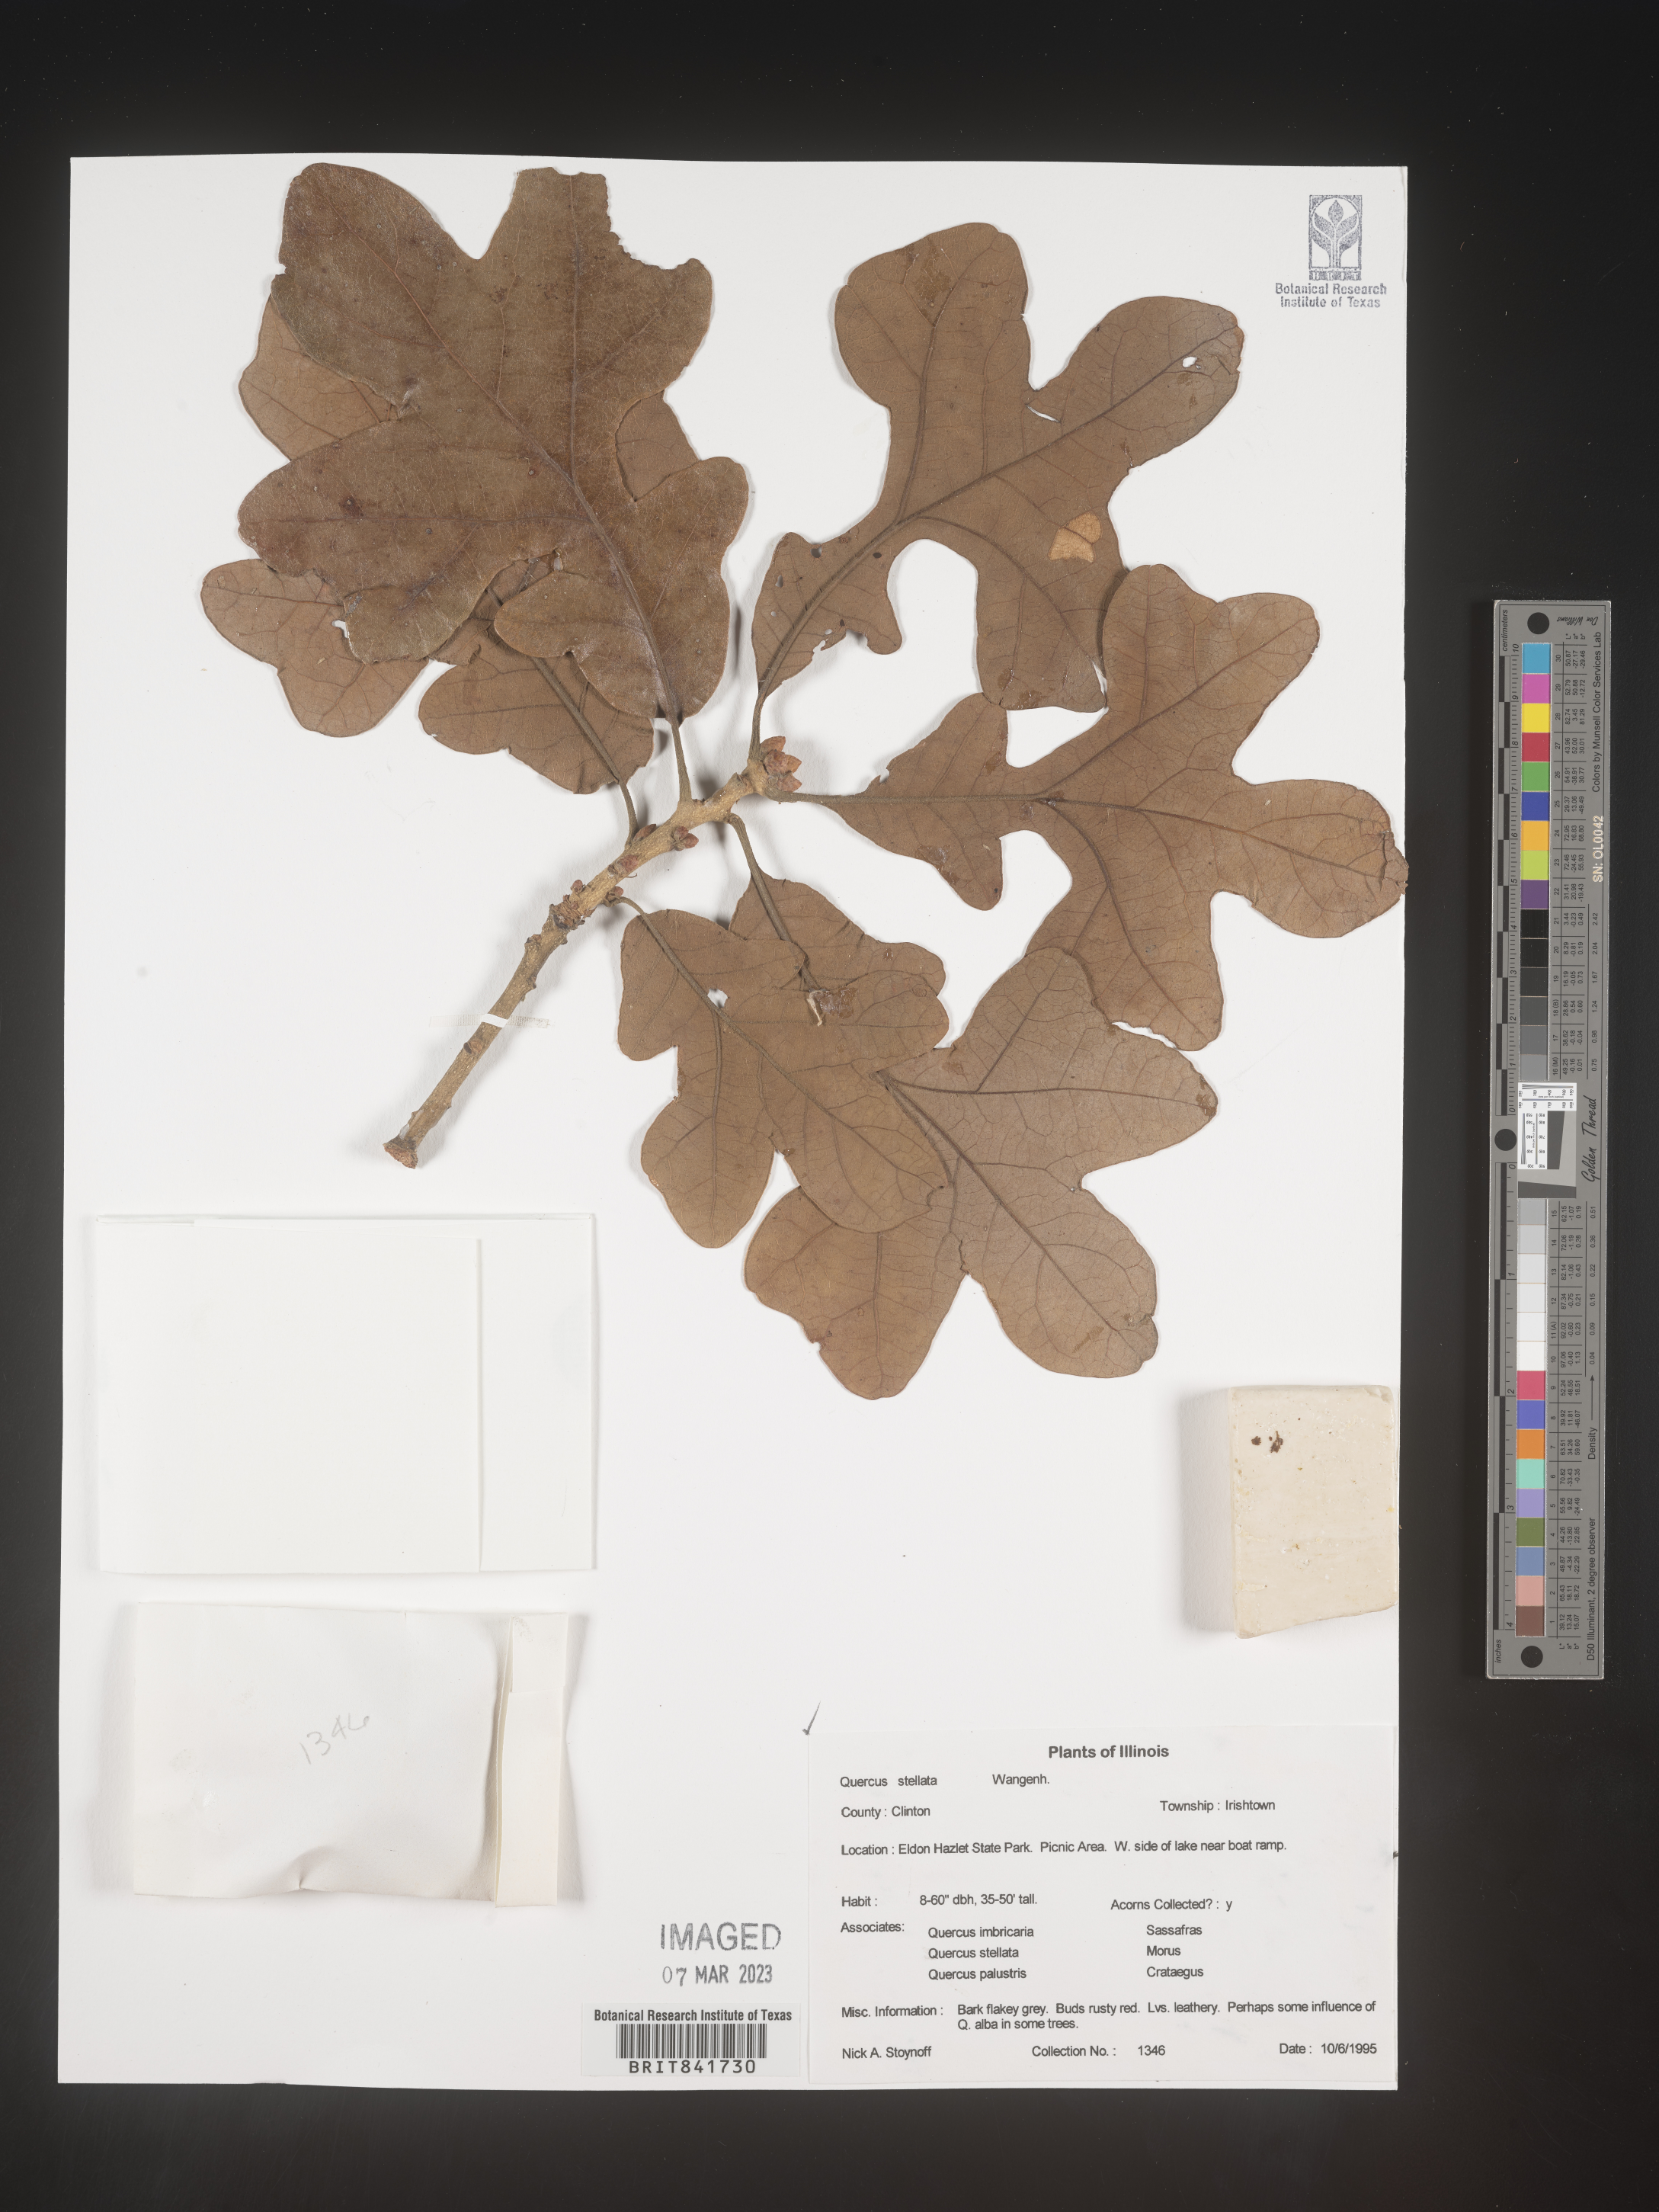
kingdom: Plantae
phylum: Tracheophyta
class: Magnoliopsida
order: Fagales
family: Fagaceae
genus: Quercus
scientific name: Quercus stellata
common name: Post oak
